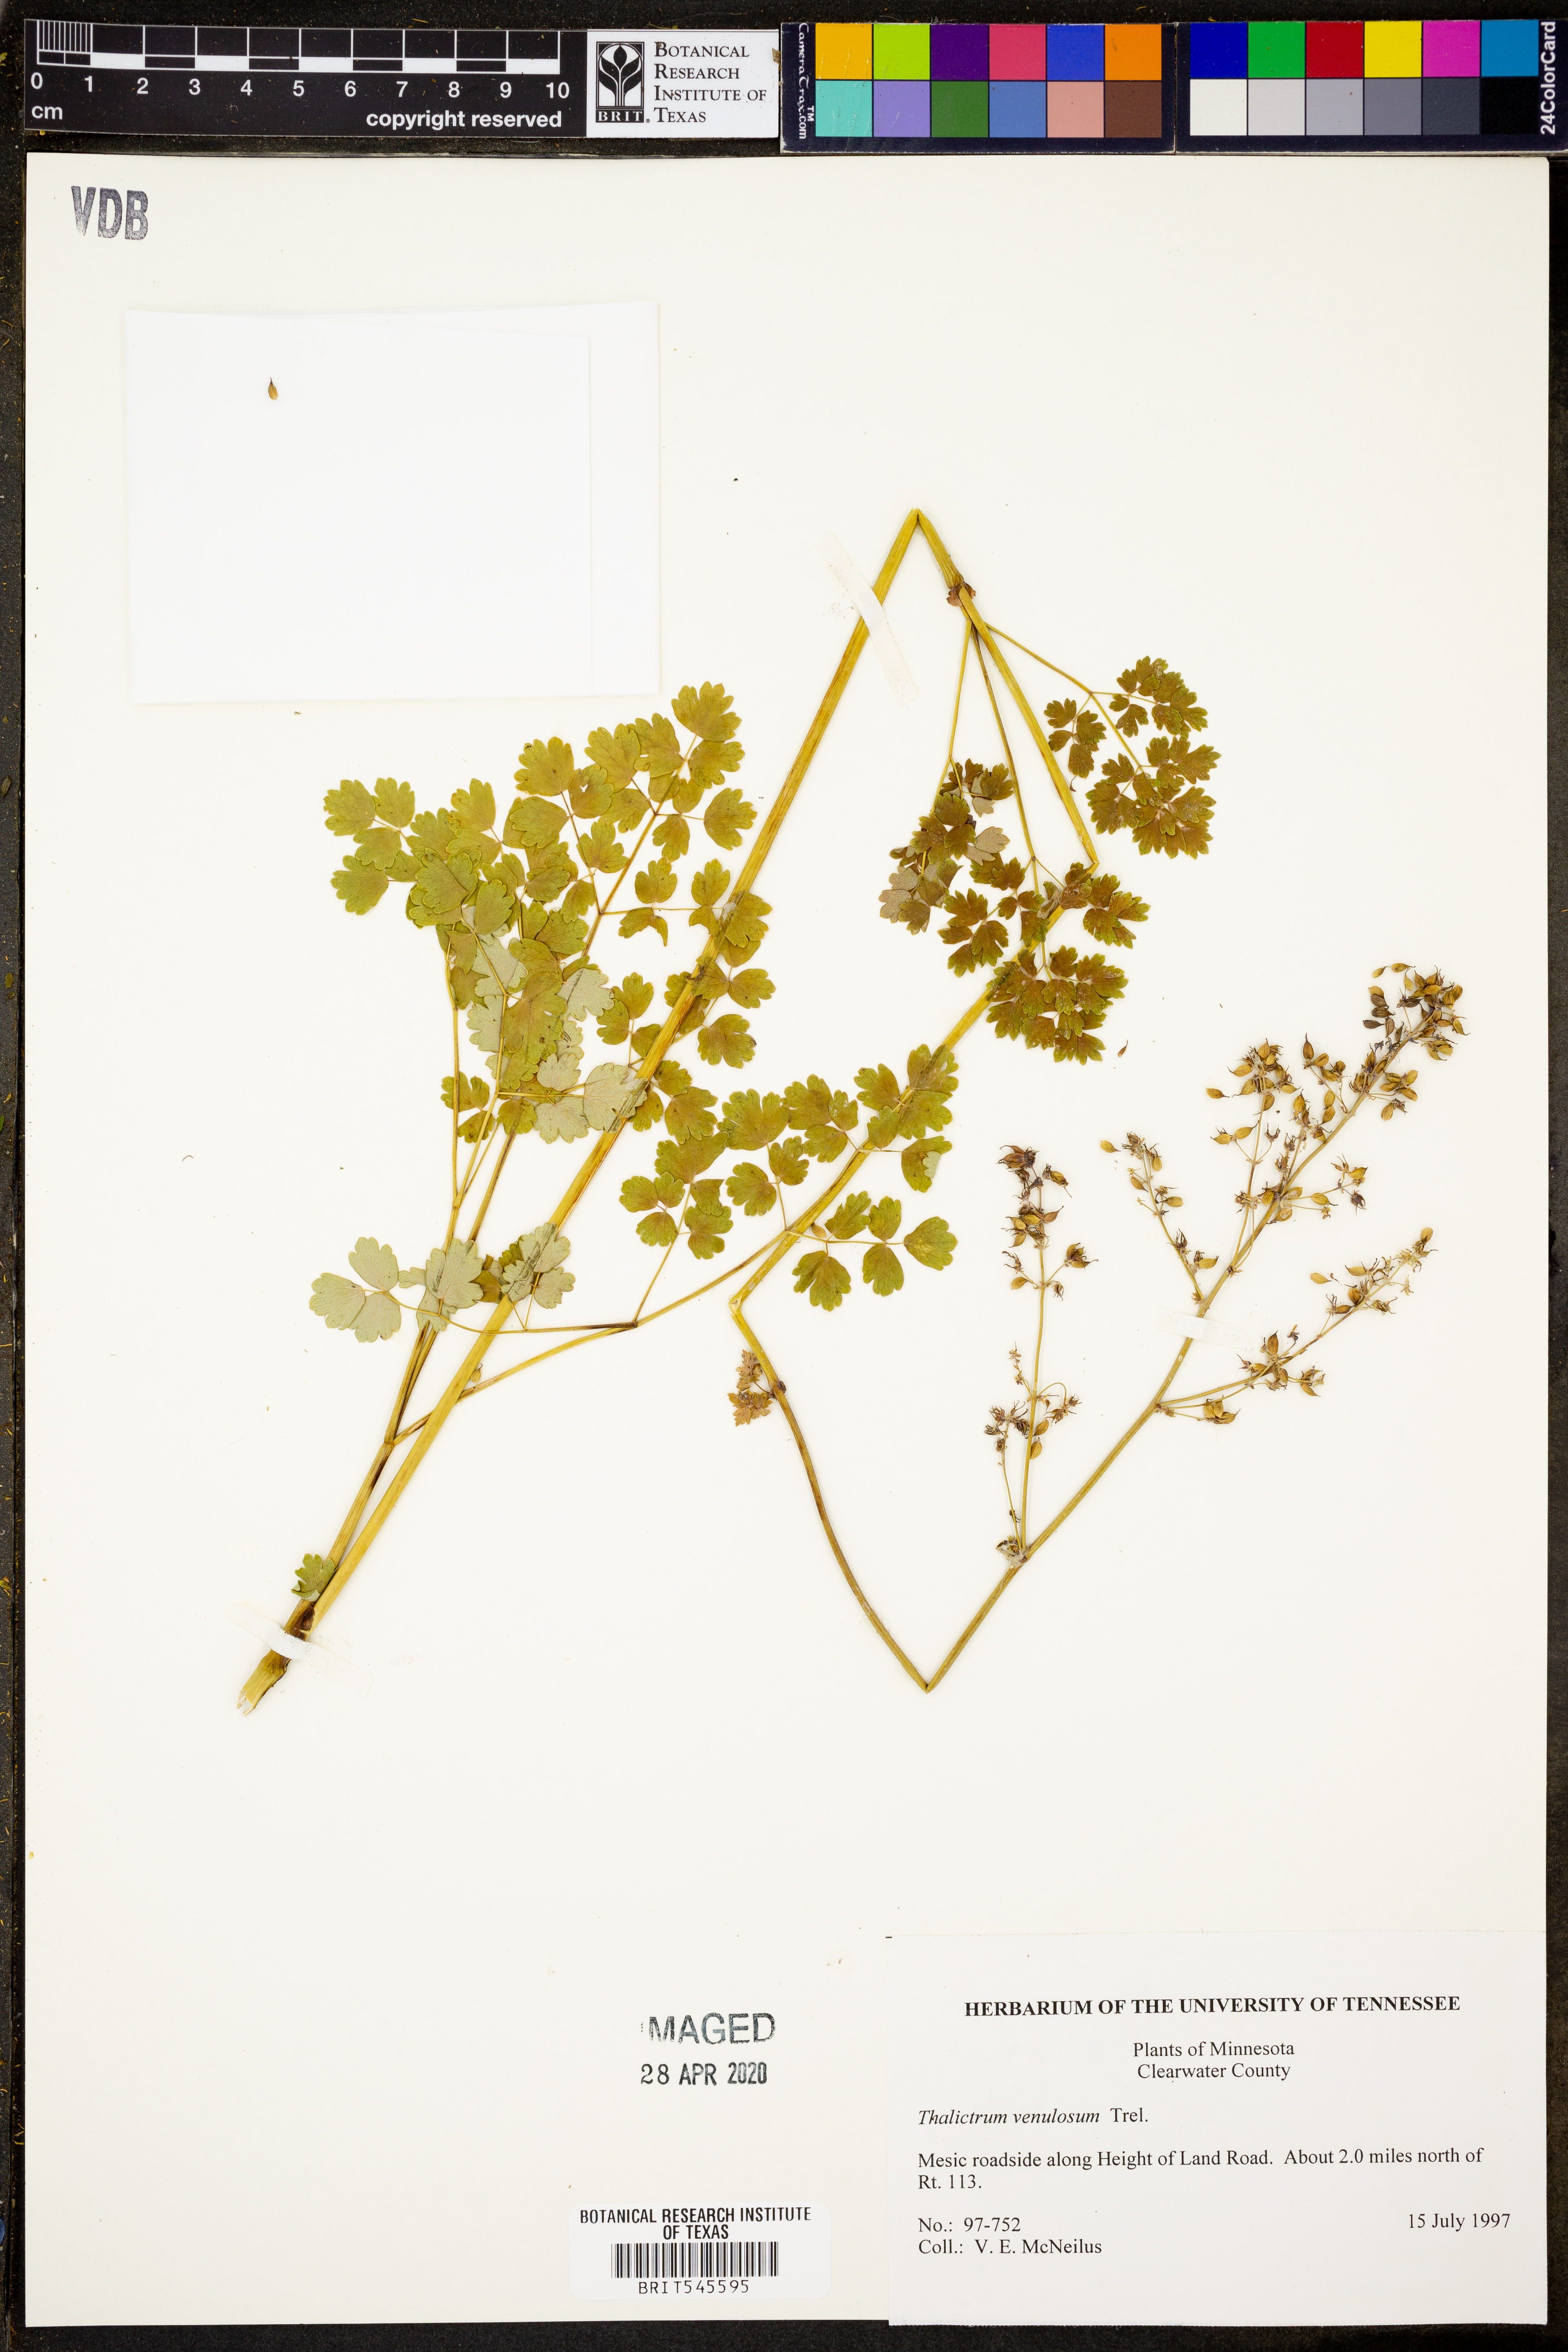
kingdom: Plantae
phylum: Tracheophyta
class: Magnoliopsida
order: Ranunculales
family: Ranunculaceae
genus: Thalictrum
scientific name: Thalictrum venulosum
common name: Early meadow-rue
